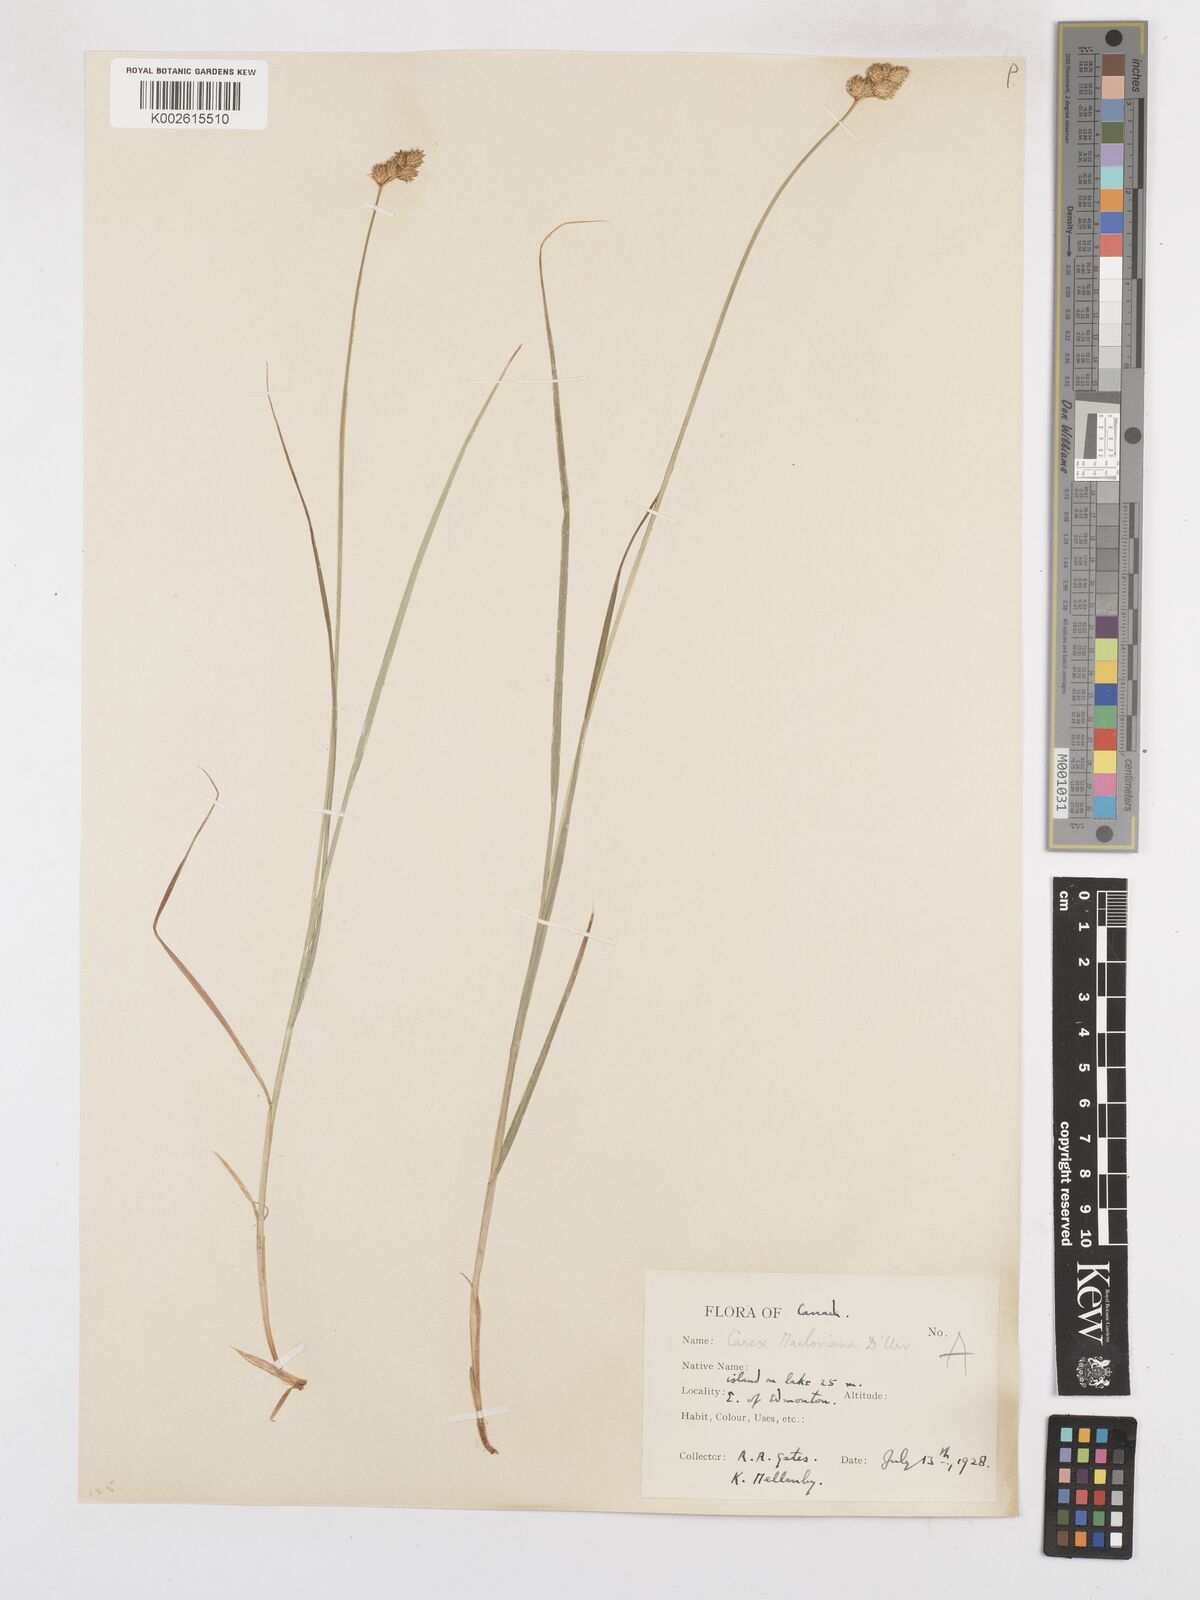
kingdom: Plantae
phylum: Tracheophyta
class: Liliopsida
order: Poales
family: Cyperaceae
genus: Carex
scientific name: Carex macloviana
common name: Falkland island sedge
